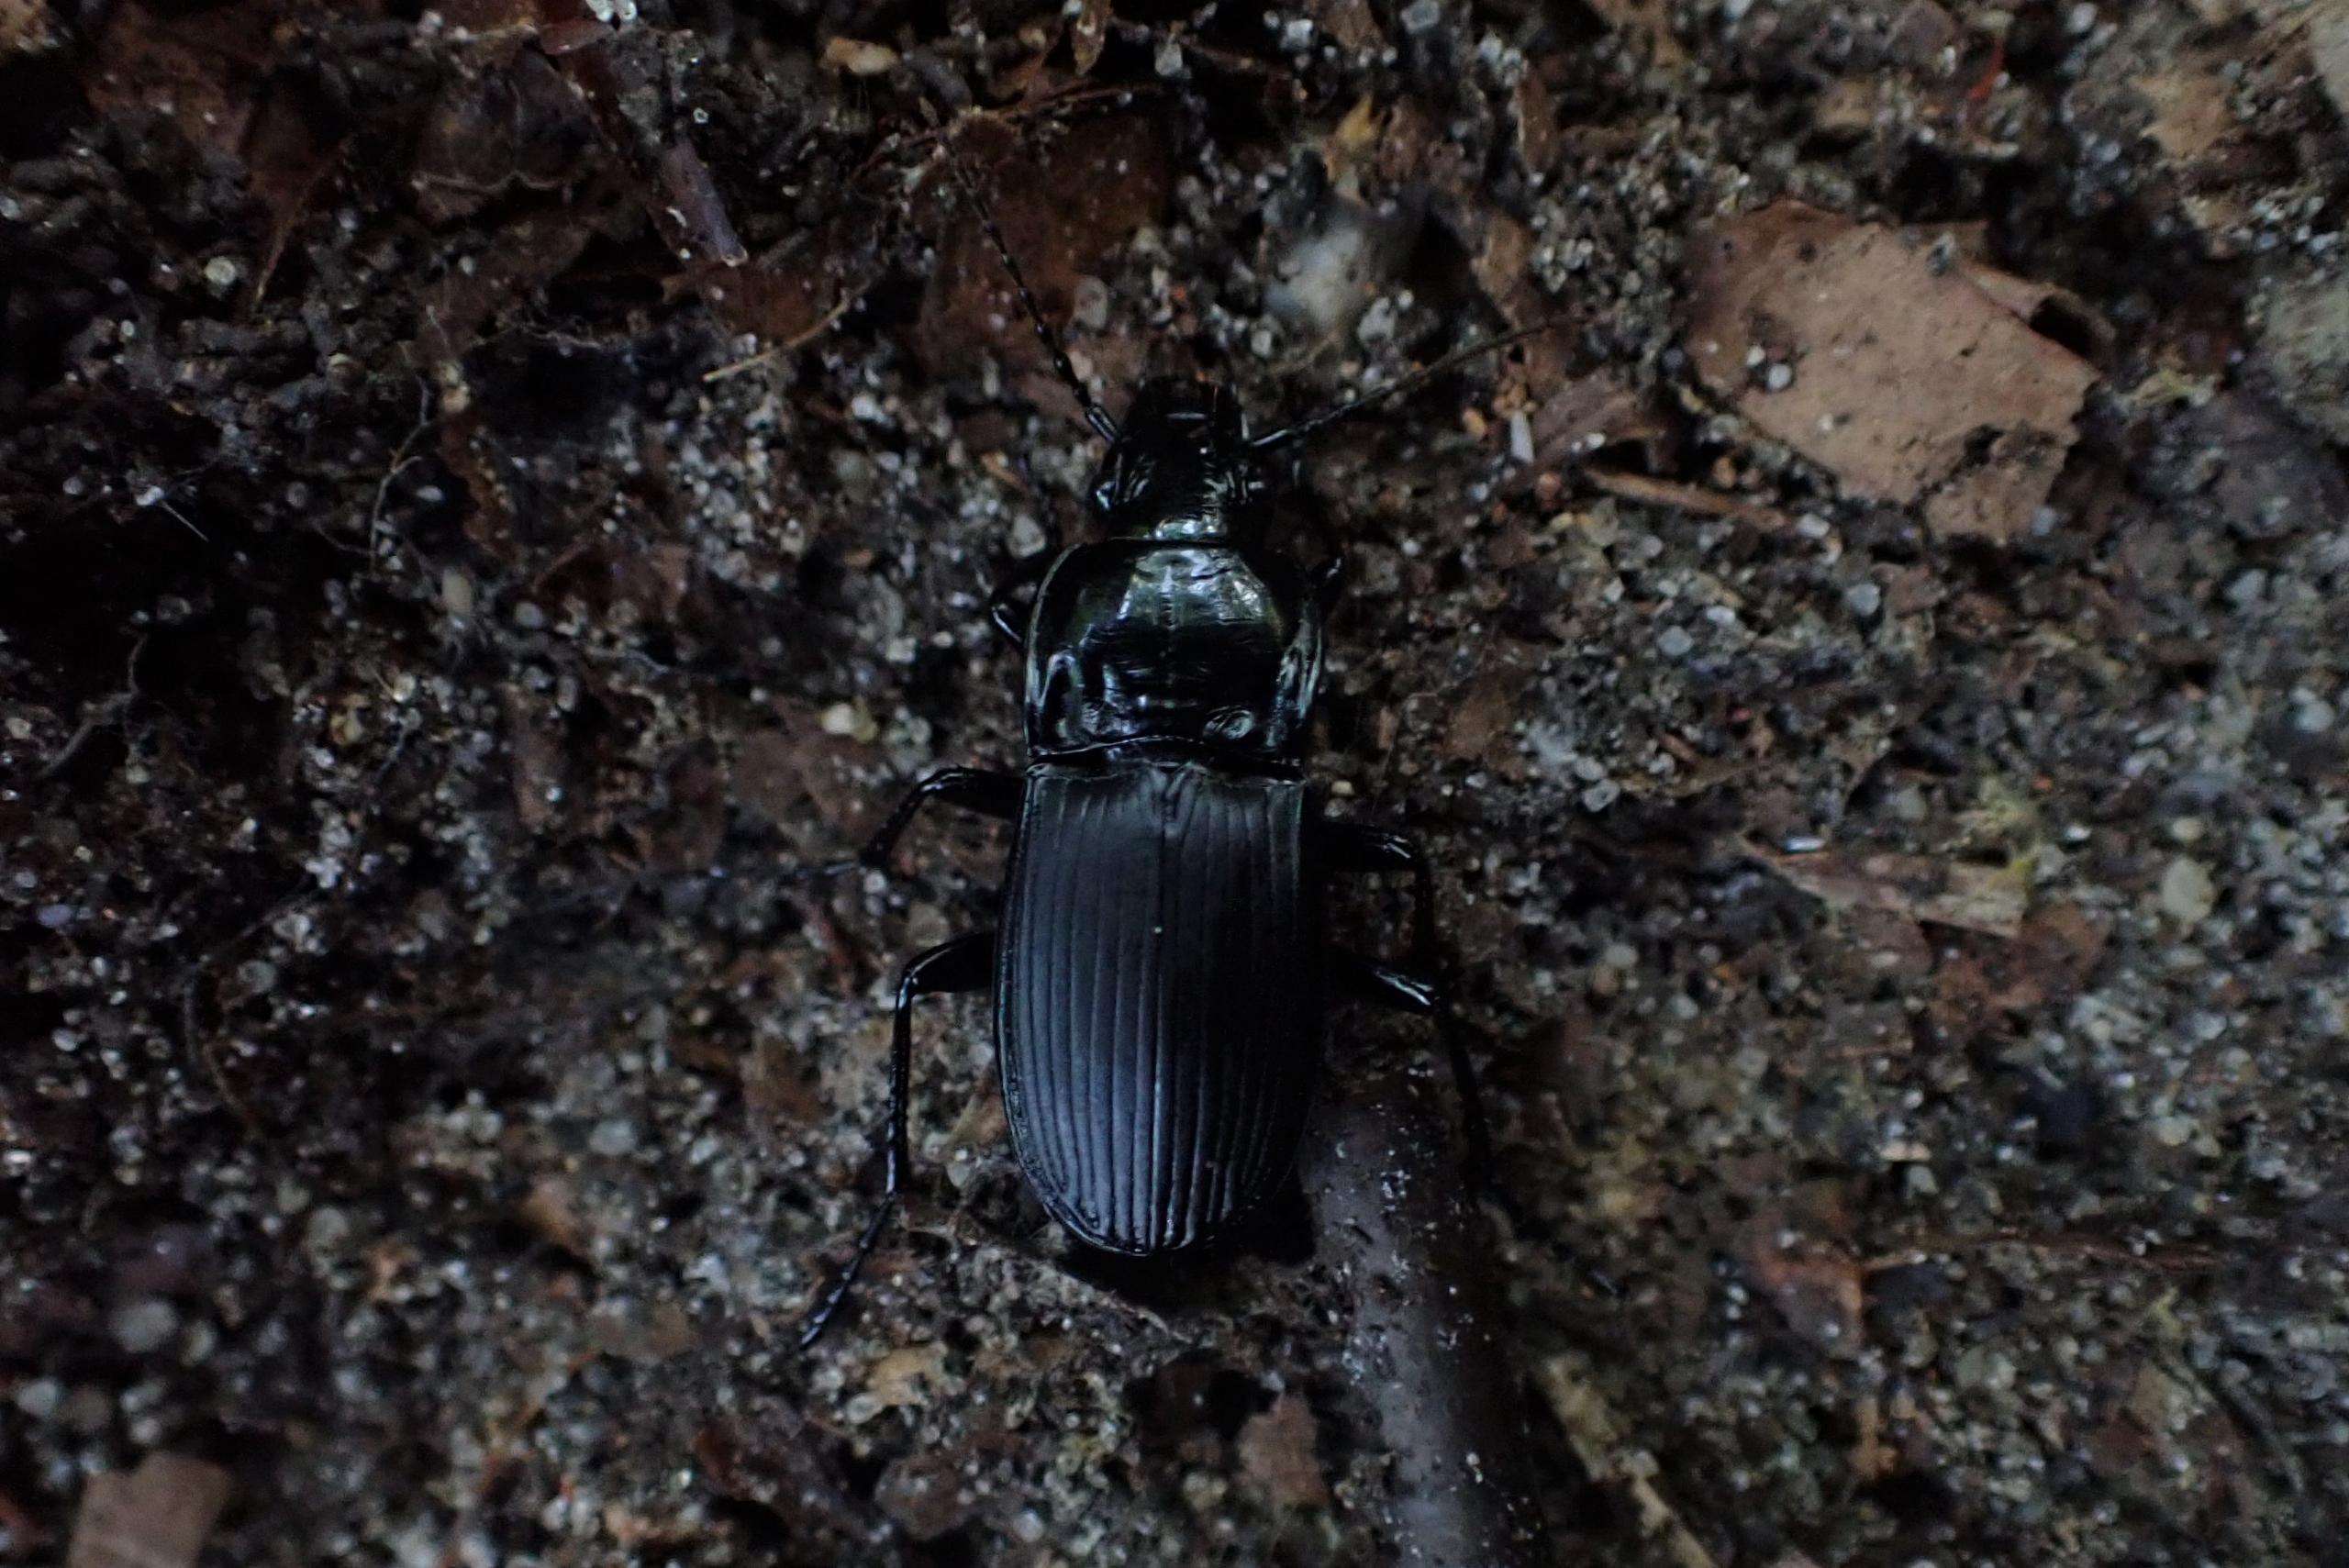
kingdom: Animalia
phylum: Arthropoda
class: Insecta
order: Coleoptera
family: Carabidae
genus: Abax
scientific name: Abax parallelepipedus
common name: Bred muldløber
